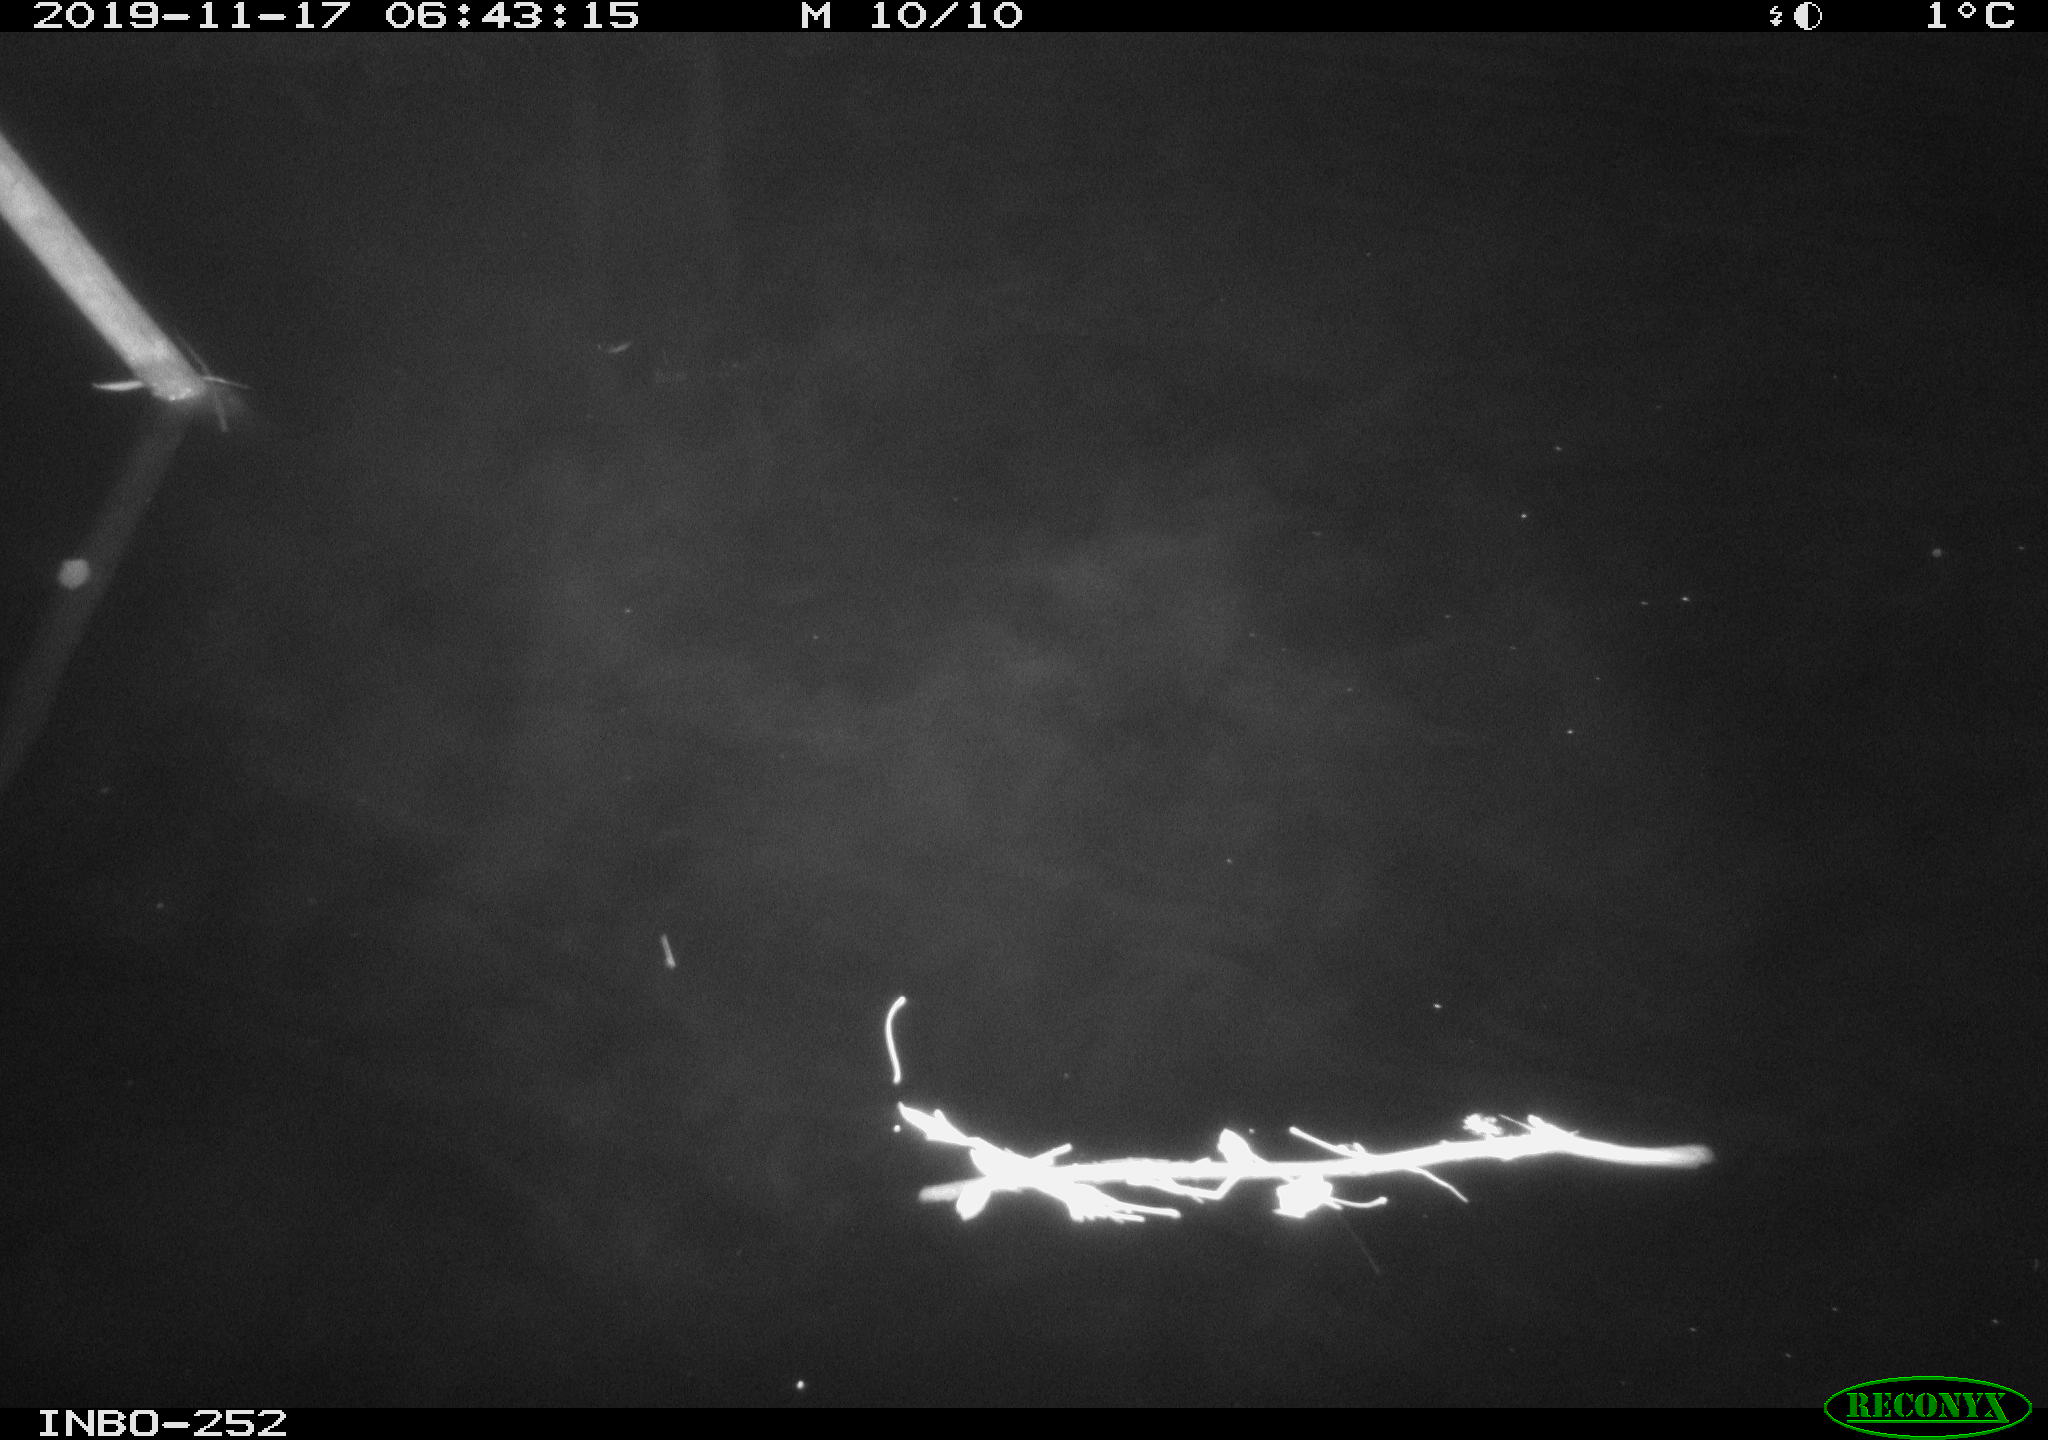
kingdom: Animalia
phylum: Chordata
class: Aves
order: Anseriformes
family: Anatidae
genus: Anas
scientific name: Anas platyrhynchos
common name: Mallard
